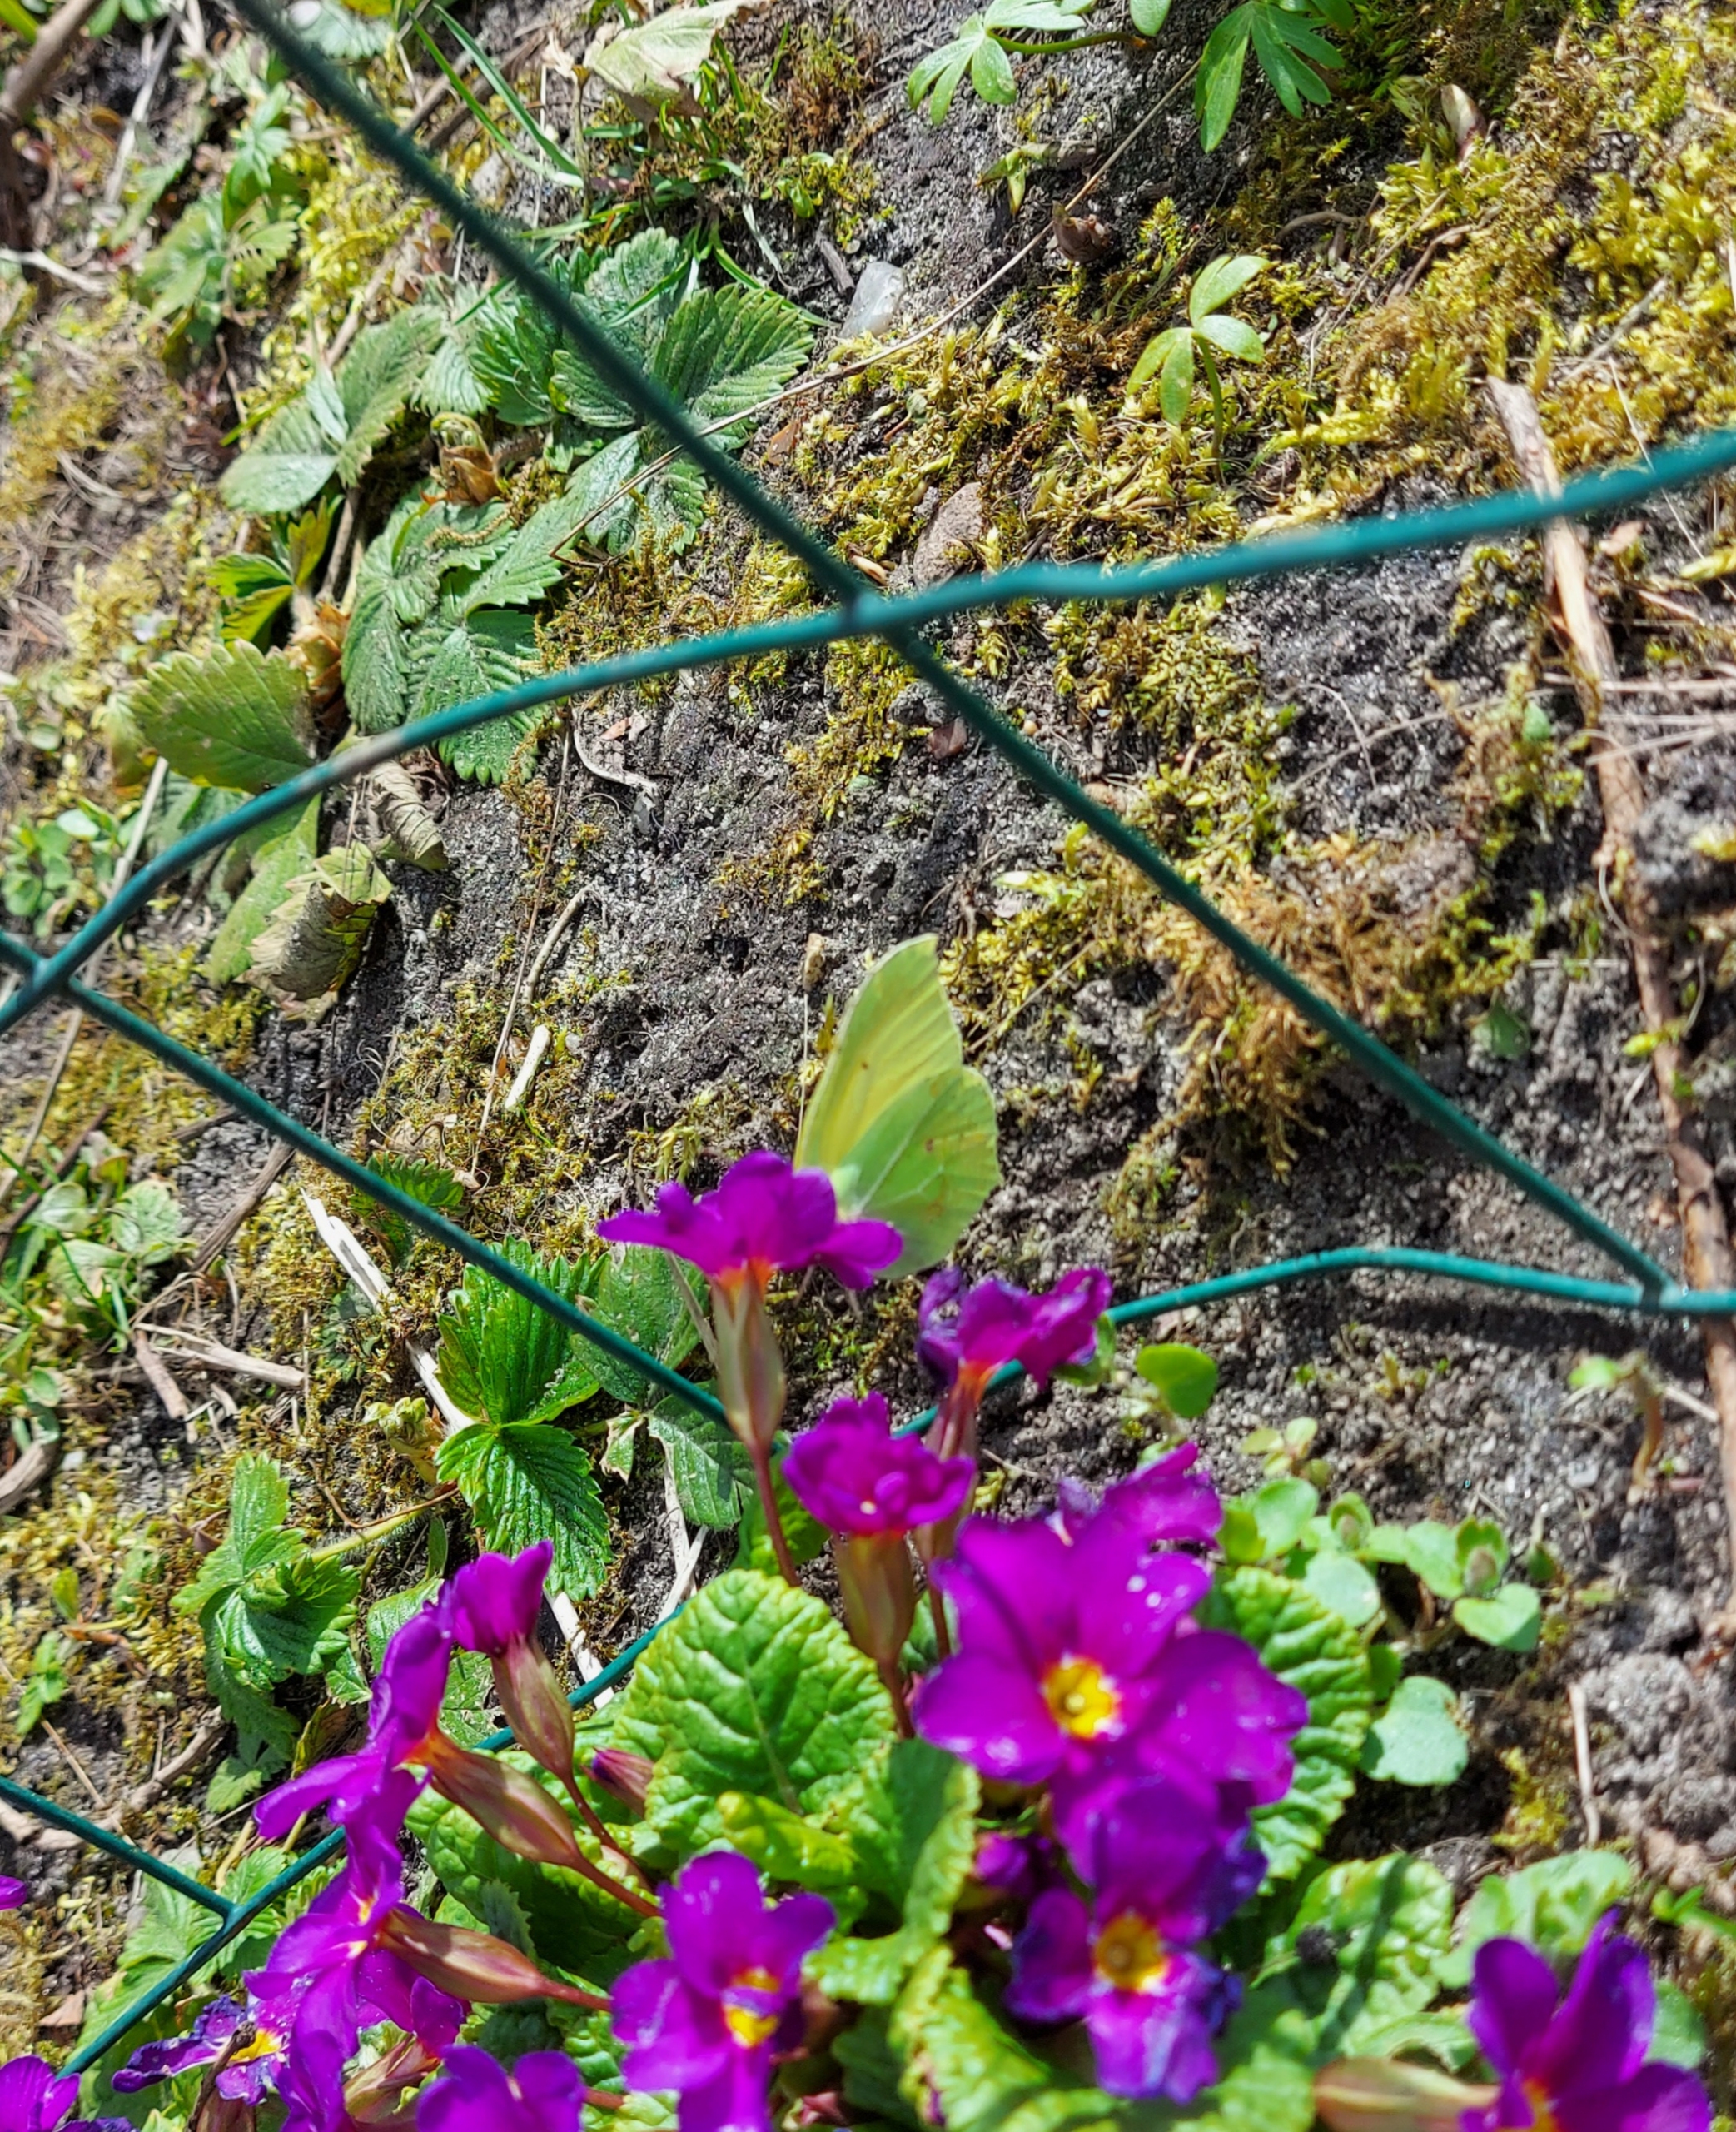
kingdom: Animalia
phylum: Arthropoda
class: Insecta
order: Lepidoptera
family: Pieridae
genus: Gonepteryx
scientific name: Gonepteryx rhamni
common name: Citronsommerfugl
